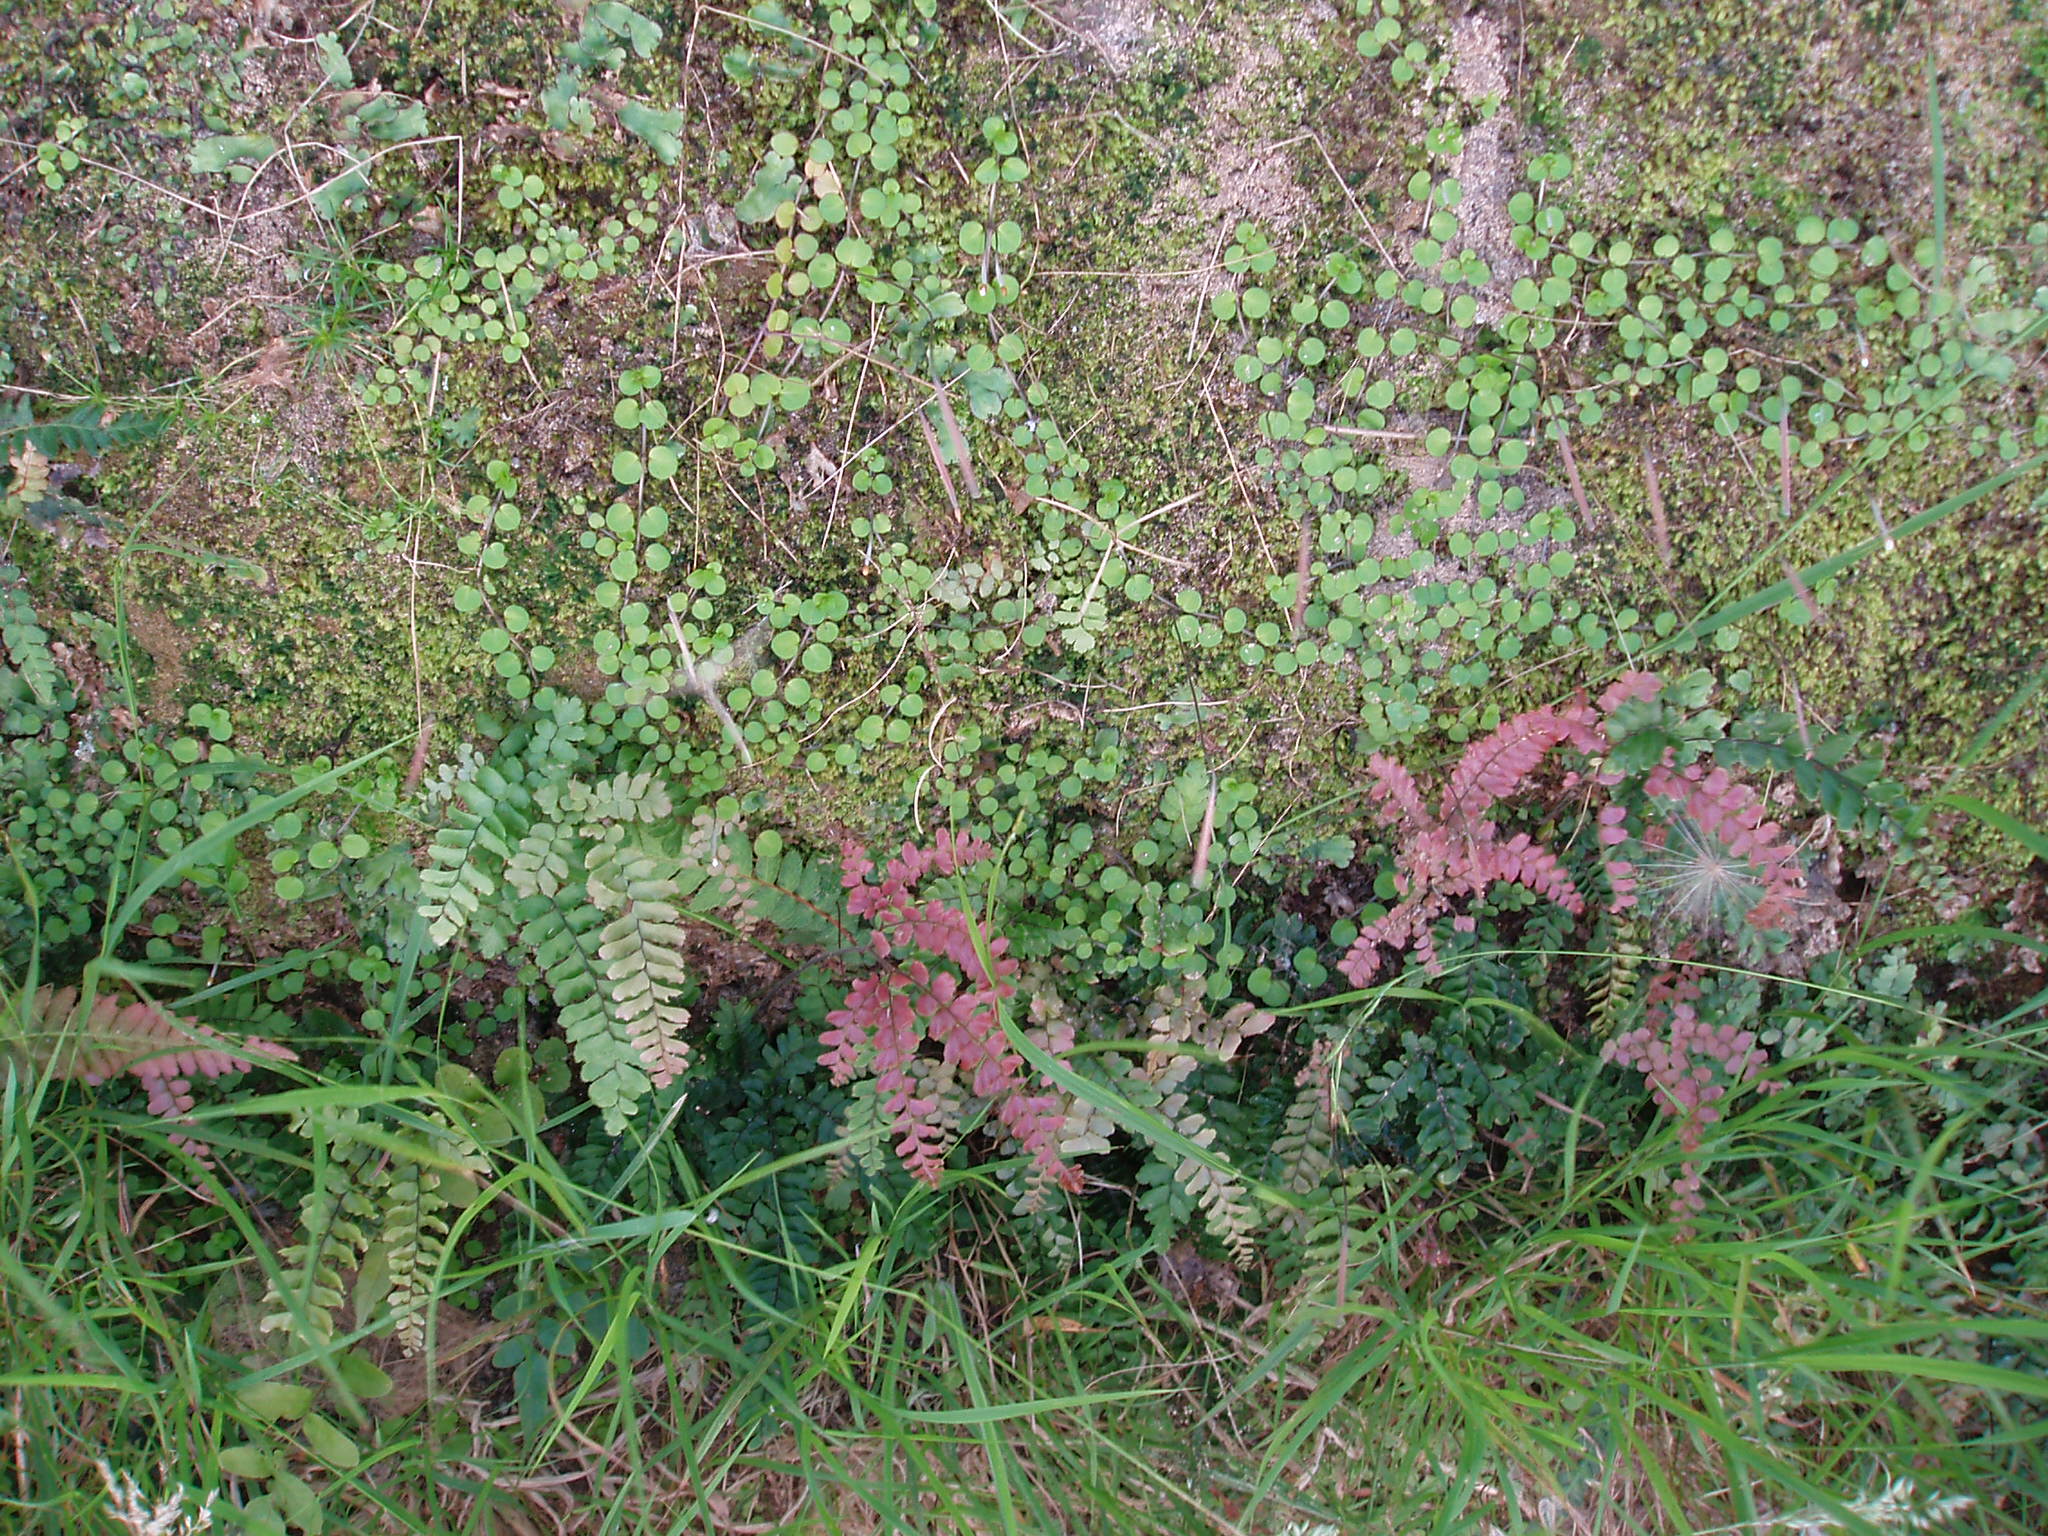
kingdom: Plantae
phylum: Tracheophyta
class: Magnoliopsida
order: Myrtales
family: Onagraceae
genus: Epilobium
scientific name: Epilobium nummularifolium
